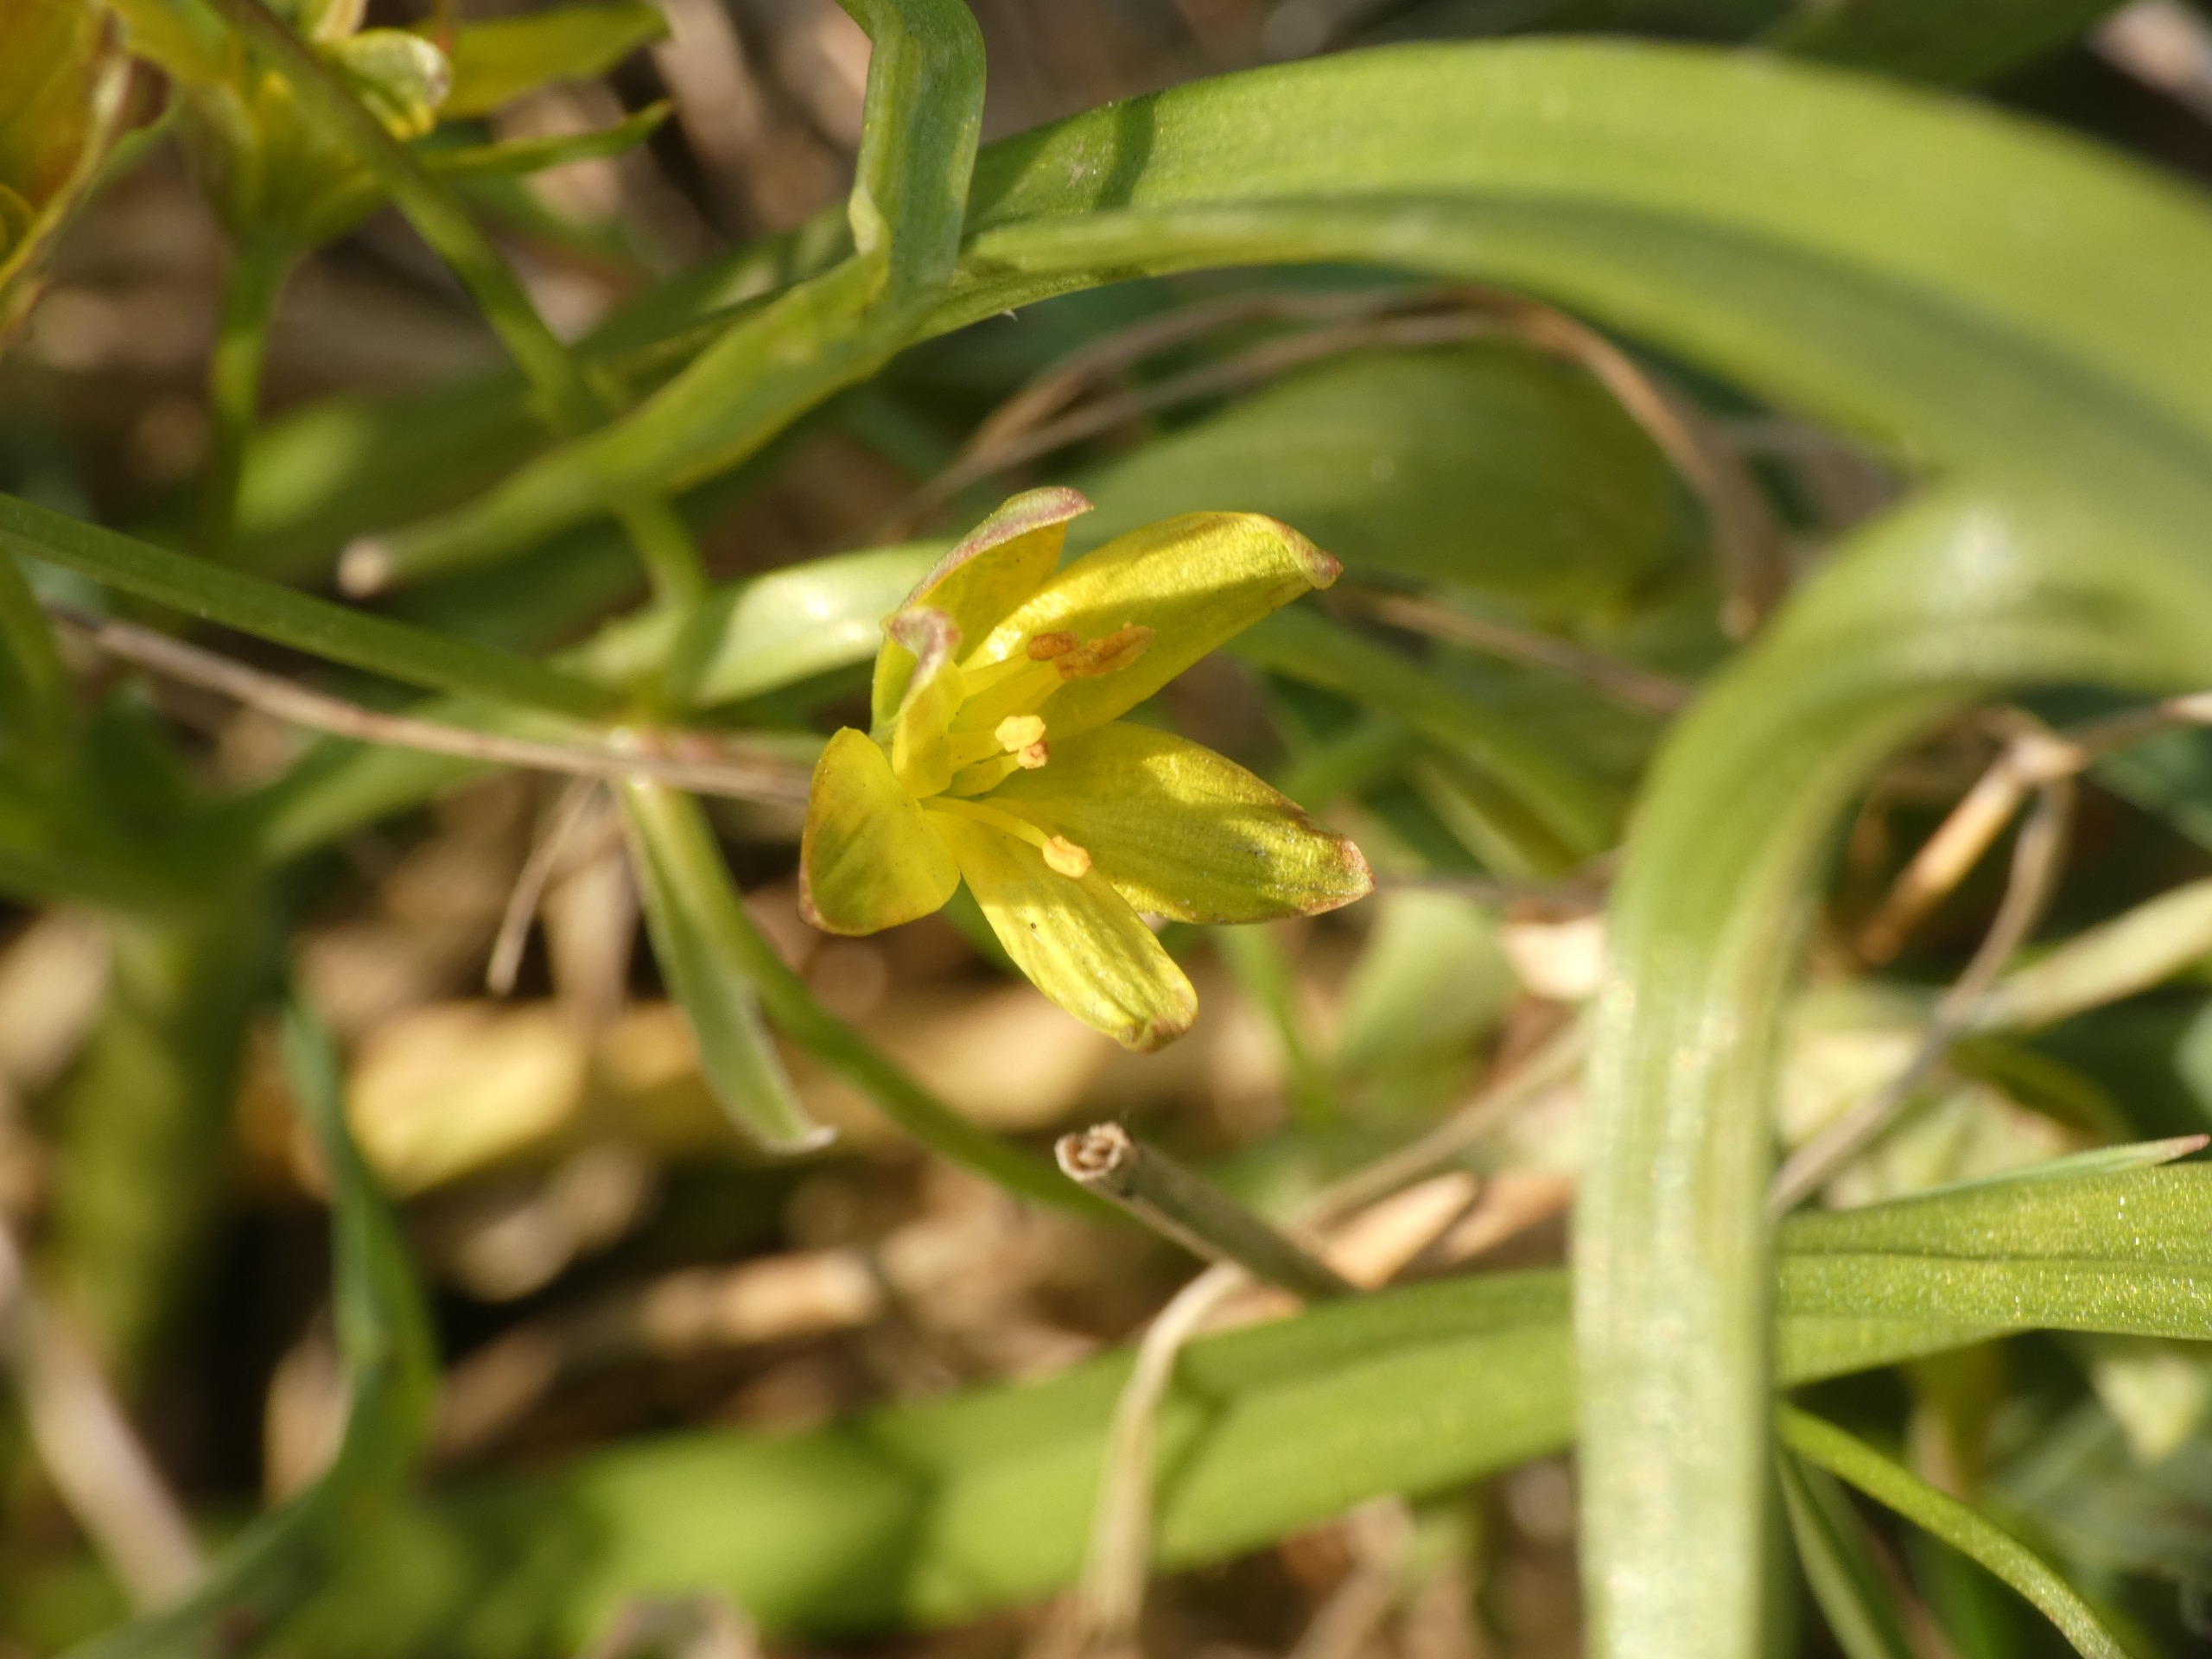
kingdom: Plantae
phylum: Tracheophyta
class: Liliopsida
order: Liliales
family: Liliaceae
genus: Gagea
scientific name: Gagea lutea
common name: Almindelig guldstjerne
